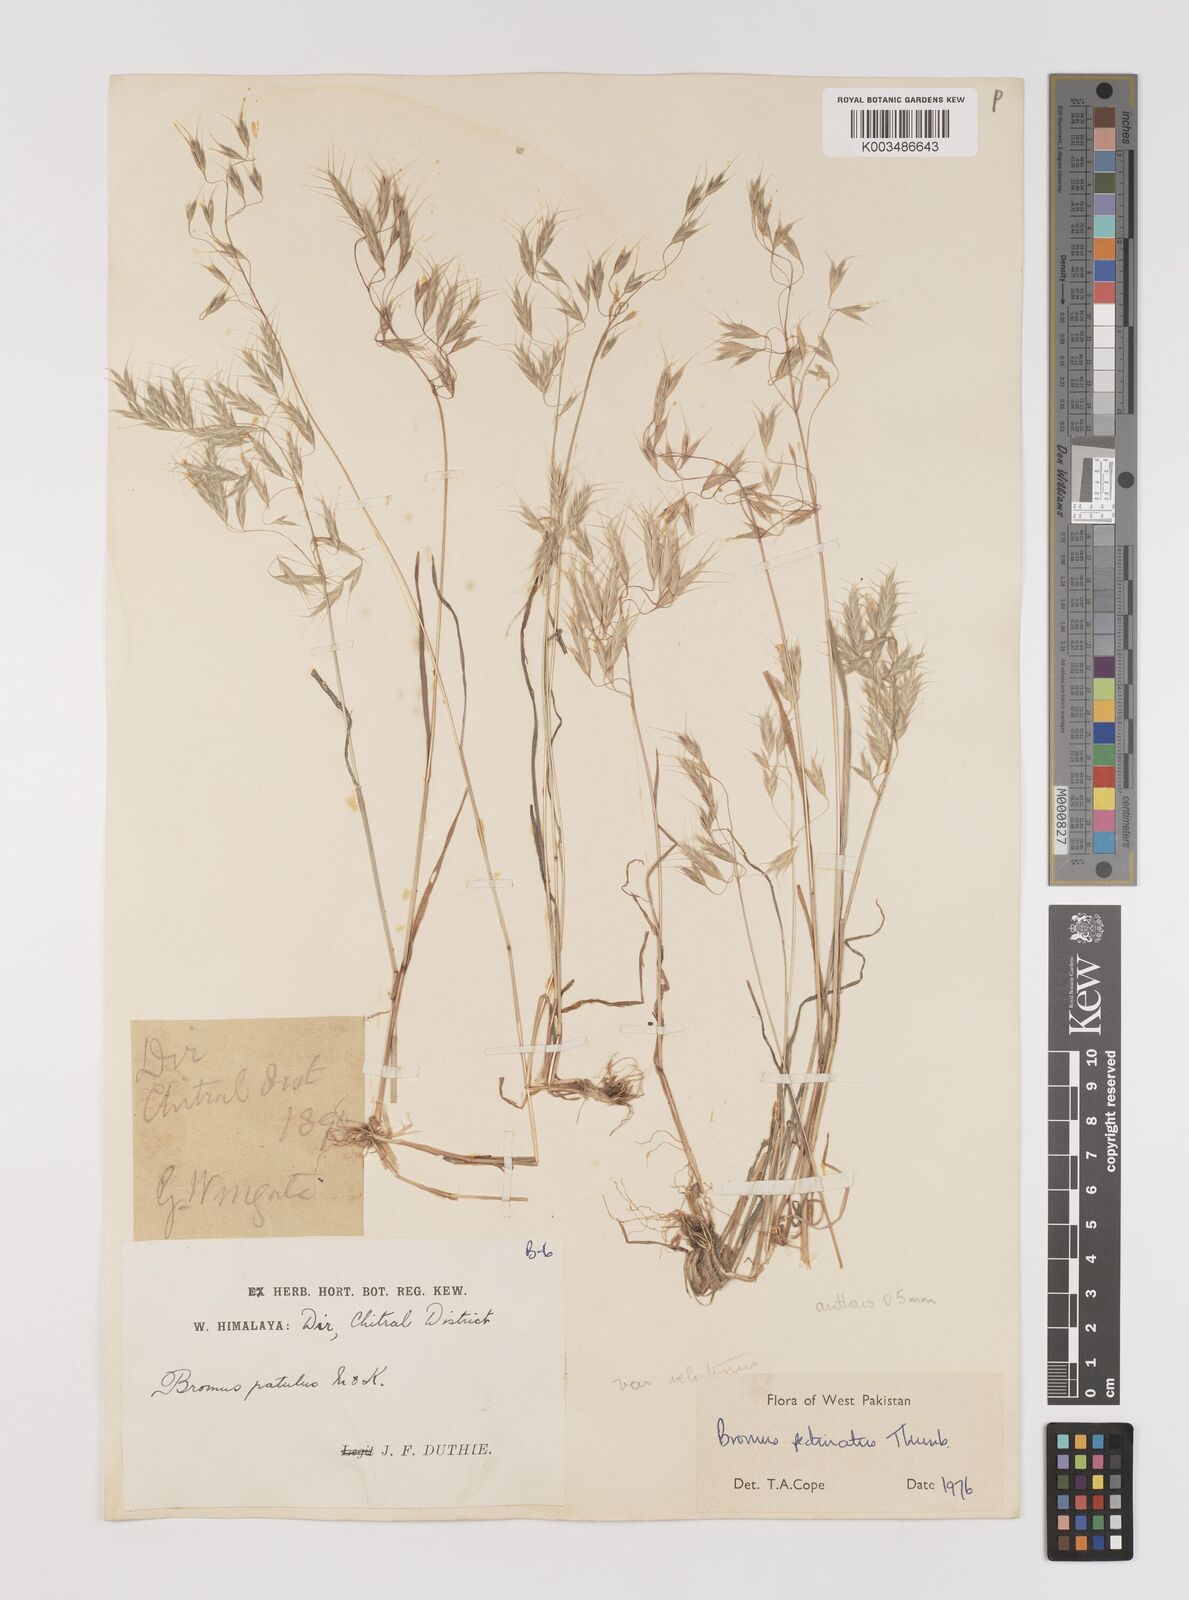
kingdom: Plantae
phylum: Tracheophyta
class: Liliopsida
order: Poales
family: Poaceae
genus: Bromus
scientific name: Bromus pectinatus
